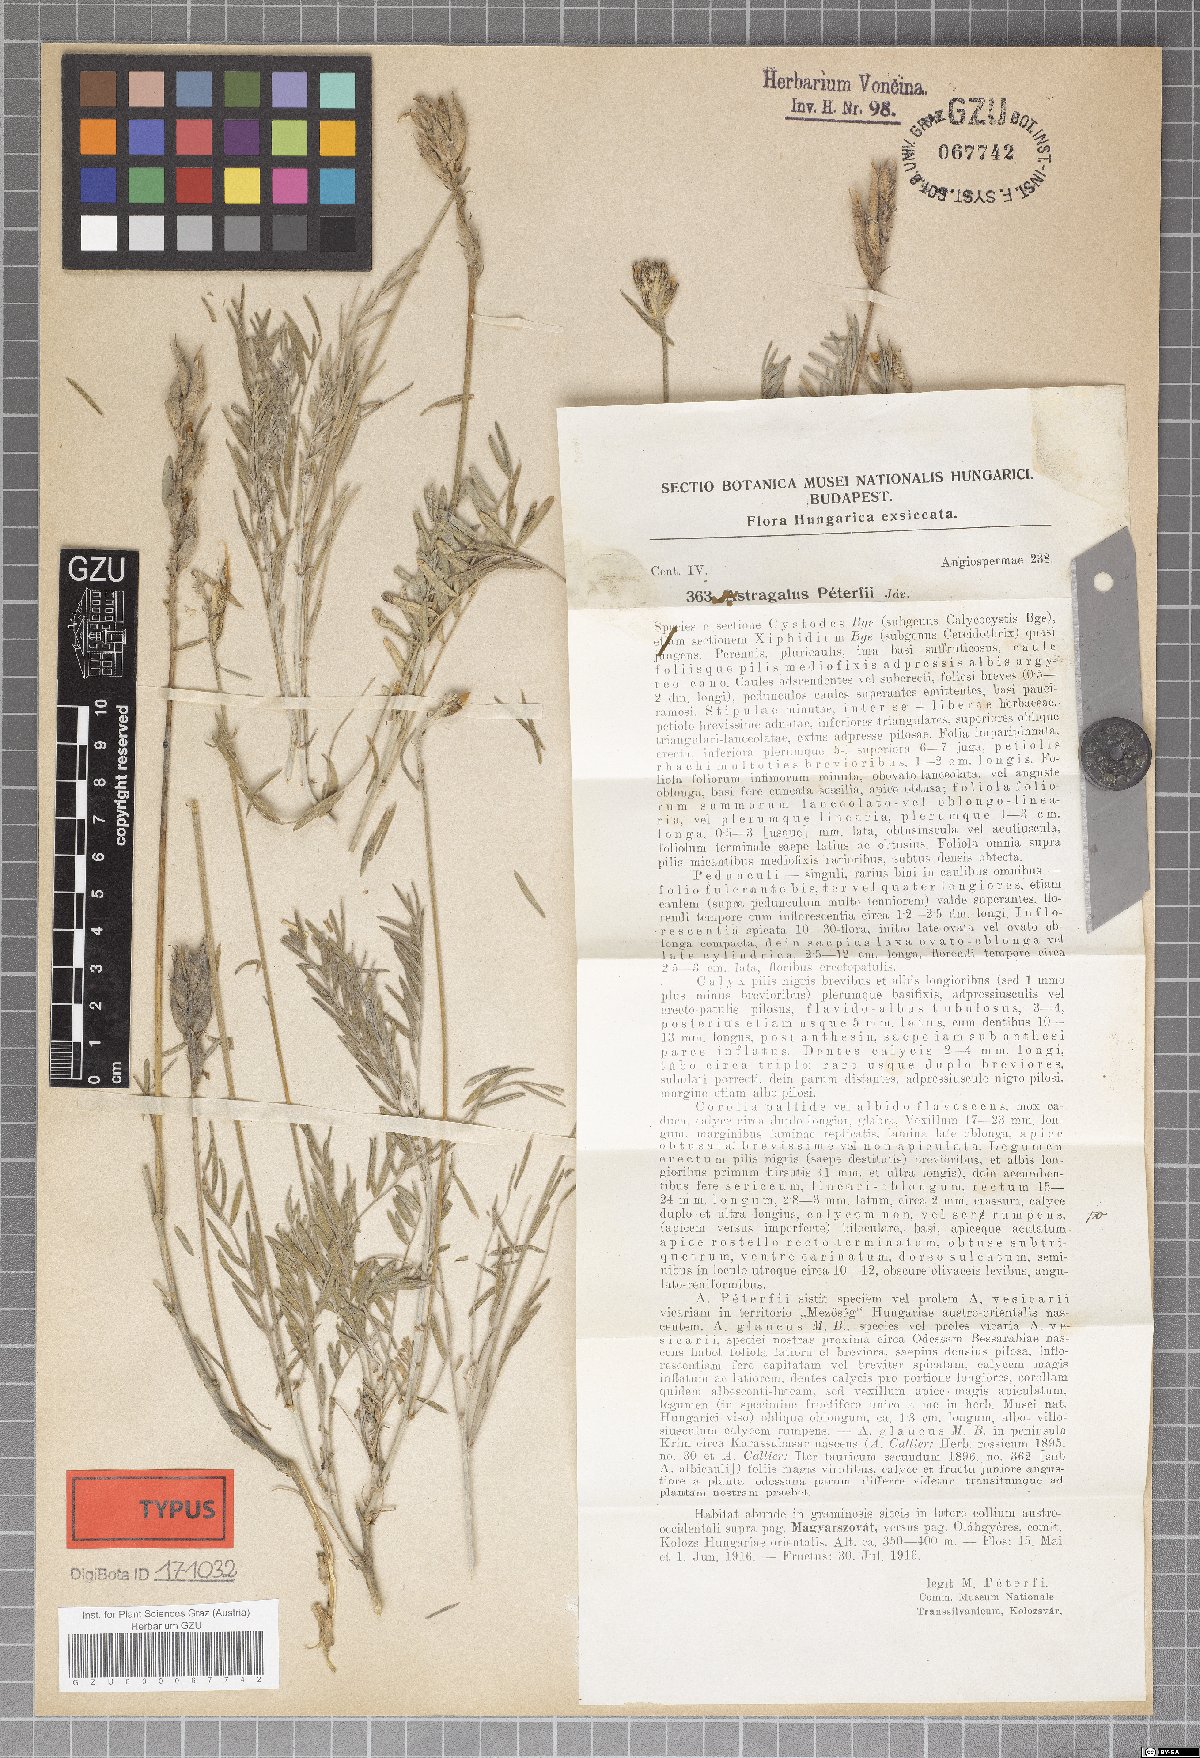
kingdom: Plantae
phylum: Tracheophyta
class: Magnoliopsida
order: Fabales
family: Fabaceae
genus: Astragalus
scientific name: Astragalus peterfii
